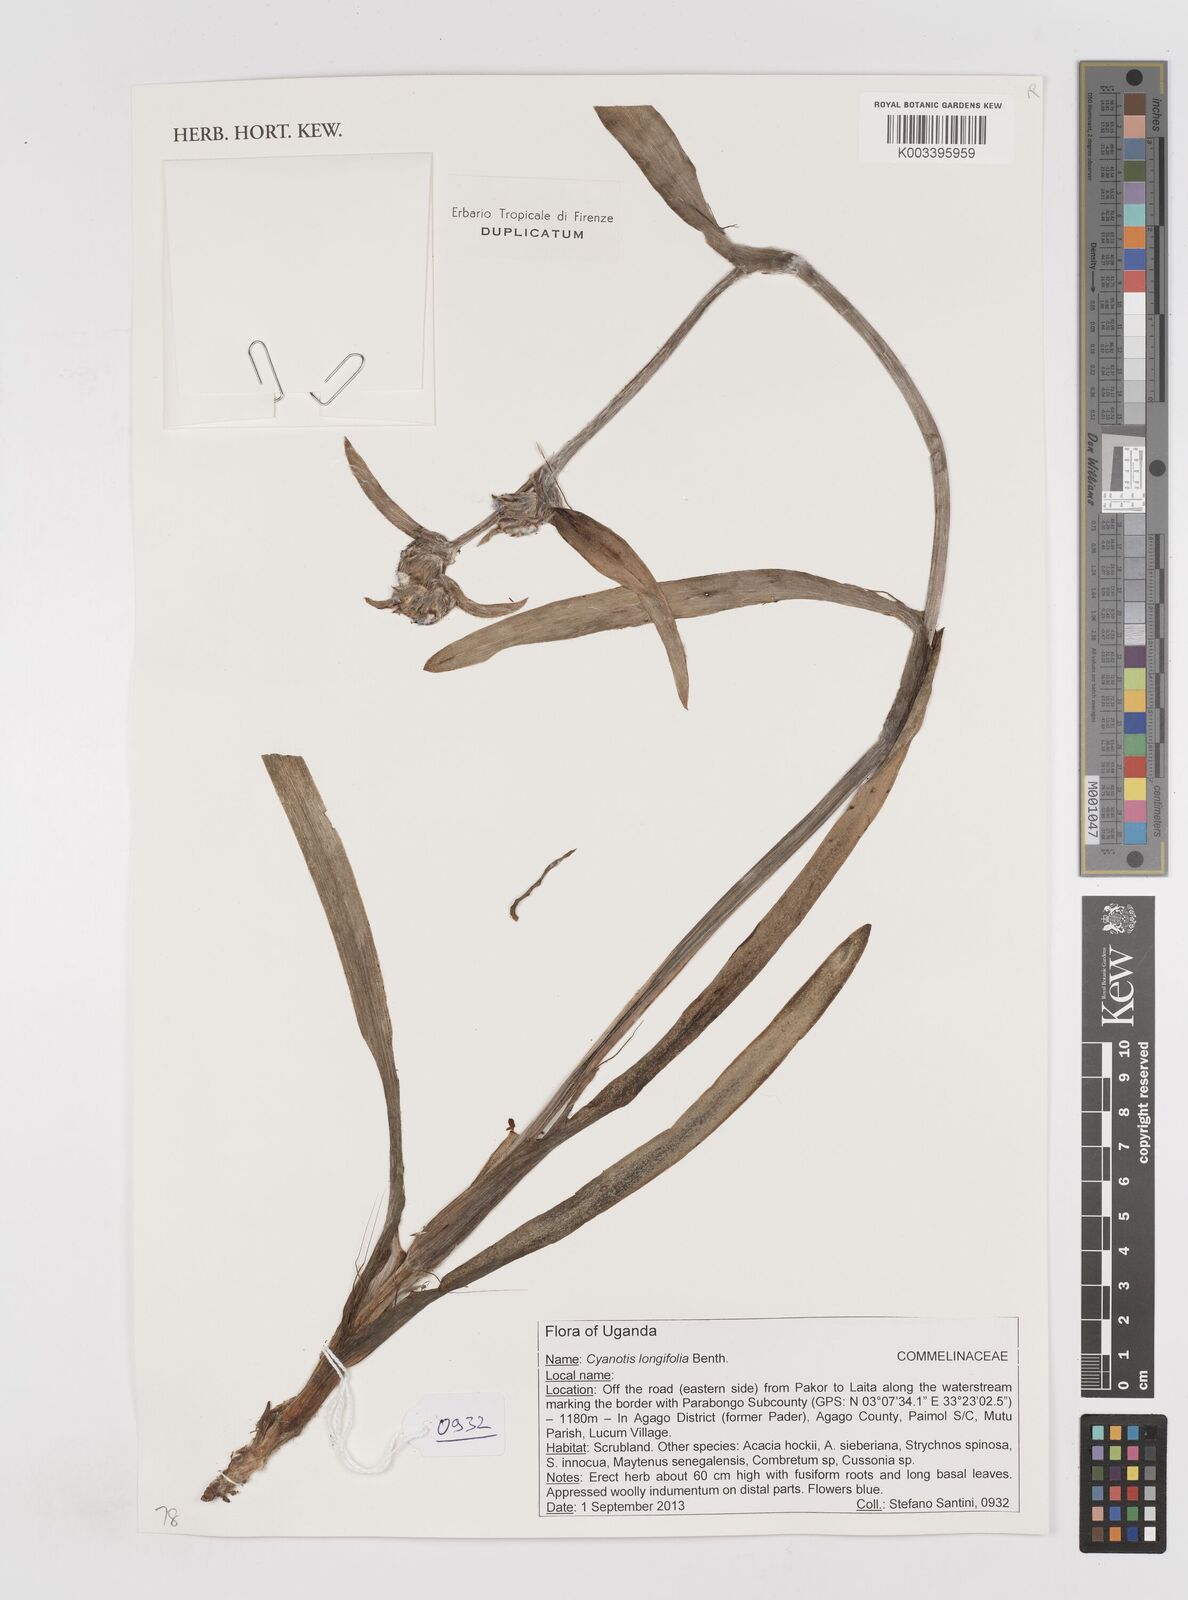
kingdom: Plantae
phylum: Tracheophyta
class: Liliopsida
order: Commelinales
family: Commelinaceae
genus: Cyanotis
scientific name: Cyanotis longifolia
